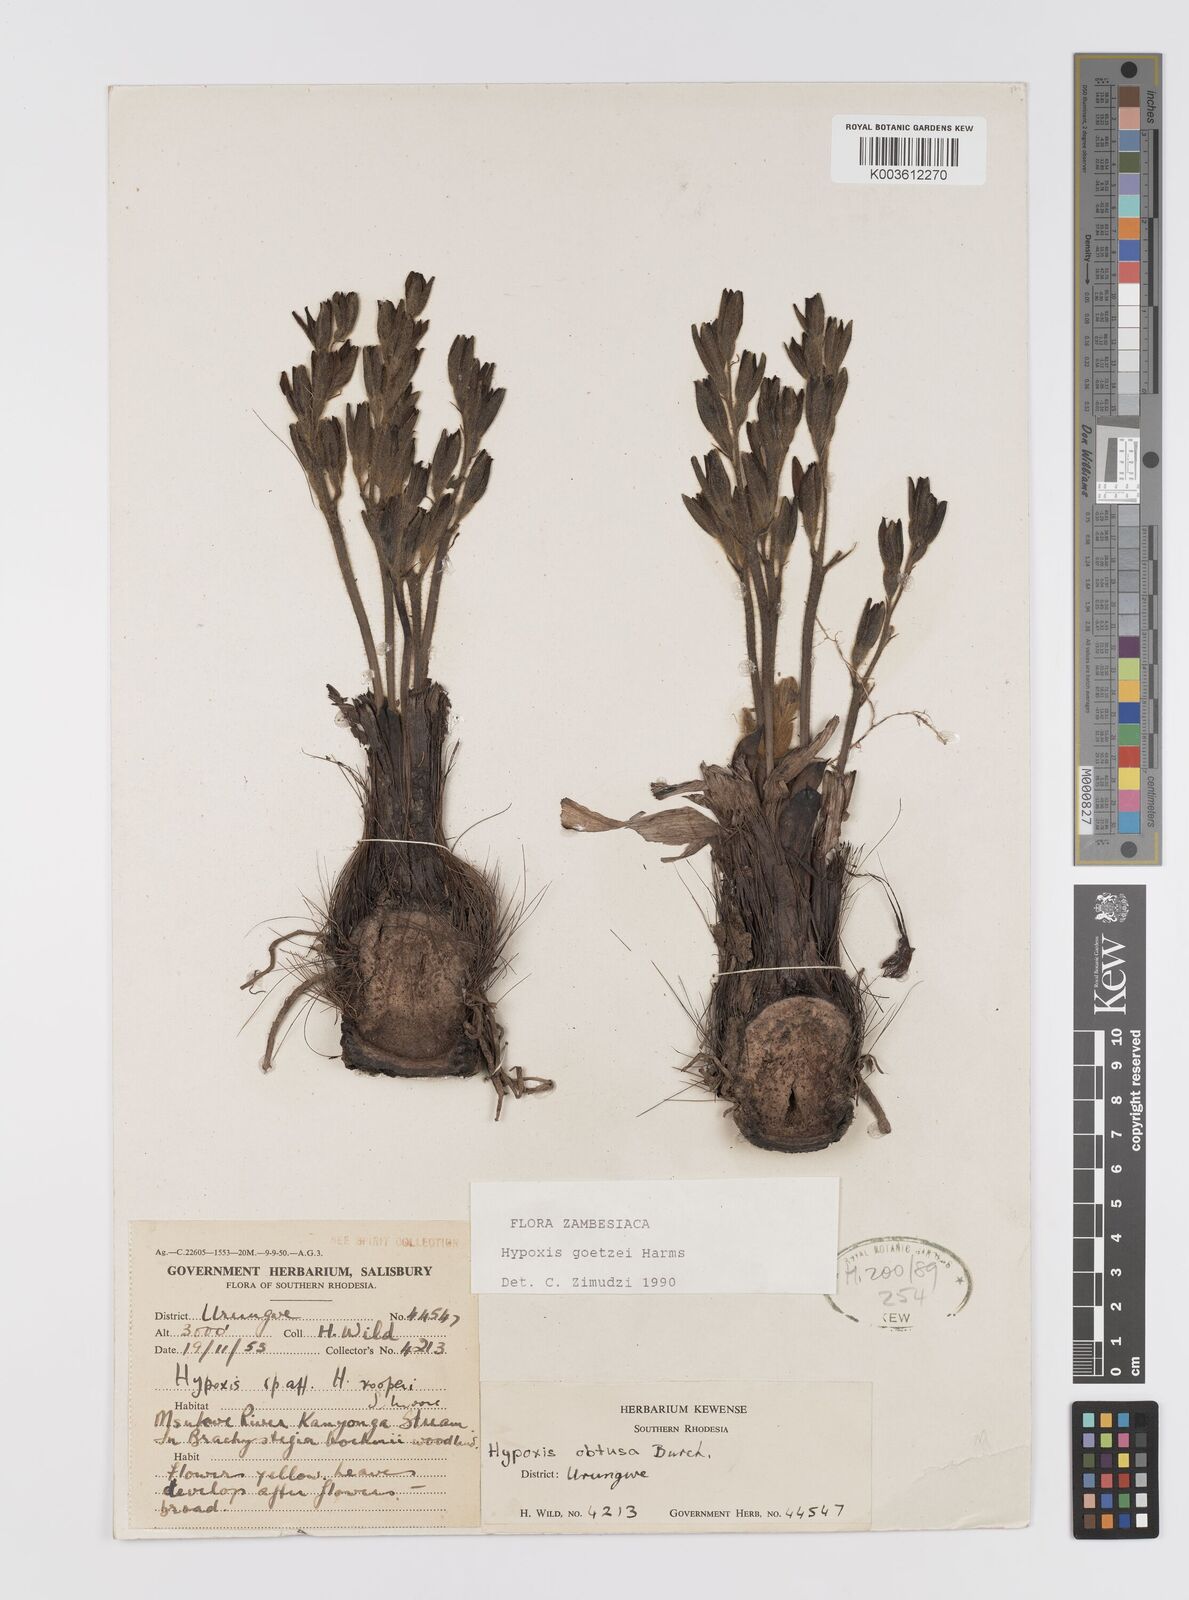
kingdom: Plantae
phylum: Tracheophyta
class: Liliopsida
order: Asparagales
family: Hypoxidaceae
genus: Hypoxis
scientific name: Hypoxis goetzei
